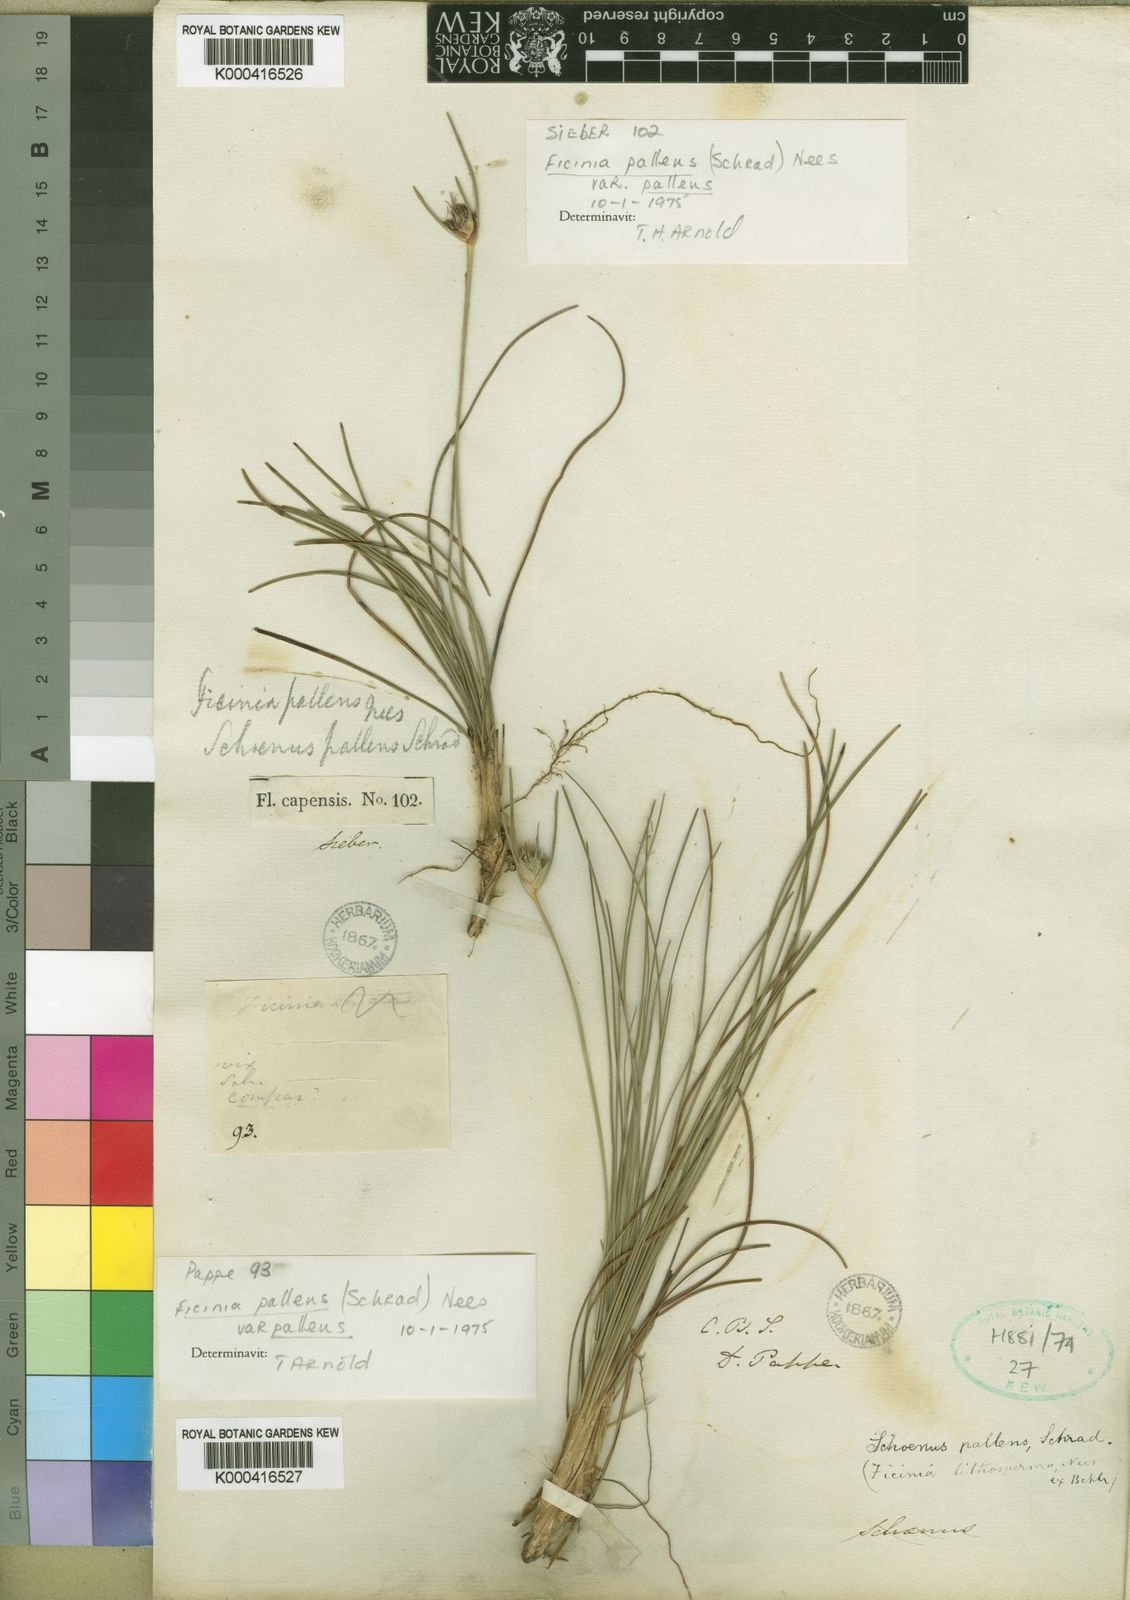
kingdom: Plantae
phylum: Tracheophyta
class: Liliopsida
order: Poales
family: Cyperaceae
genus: Ficinia
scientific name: Ficinia pallens
